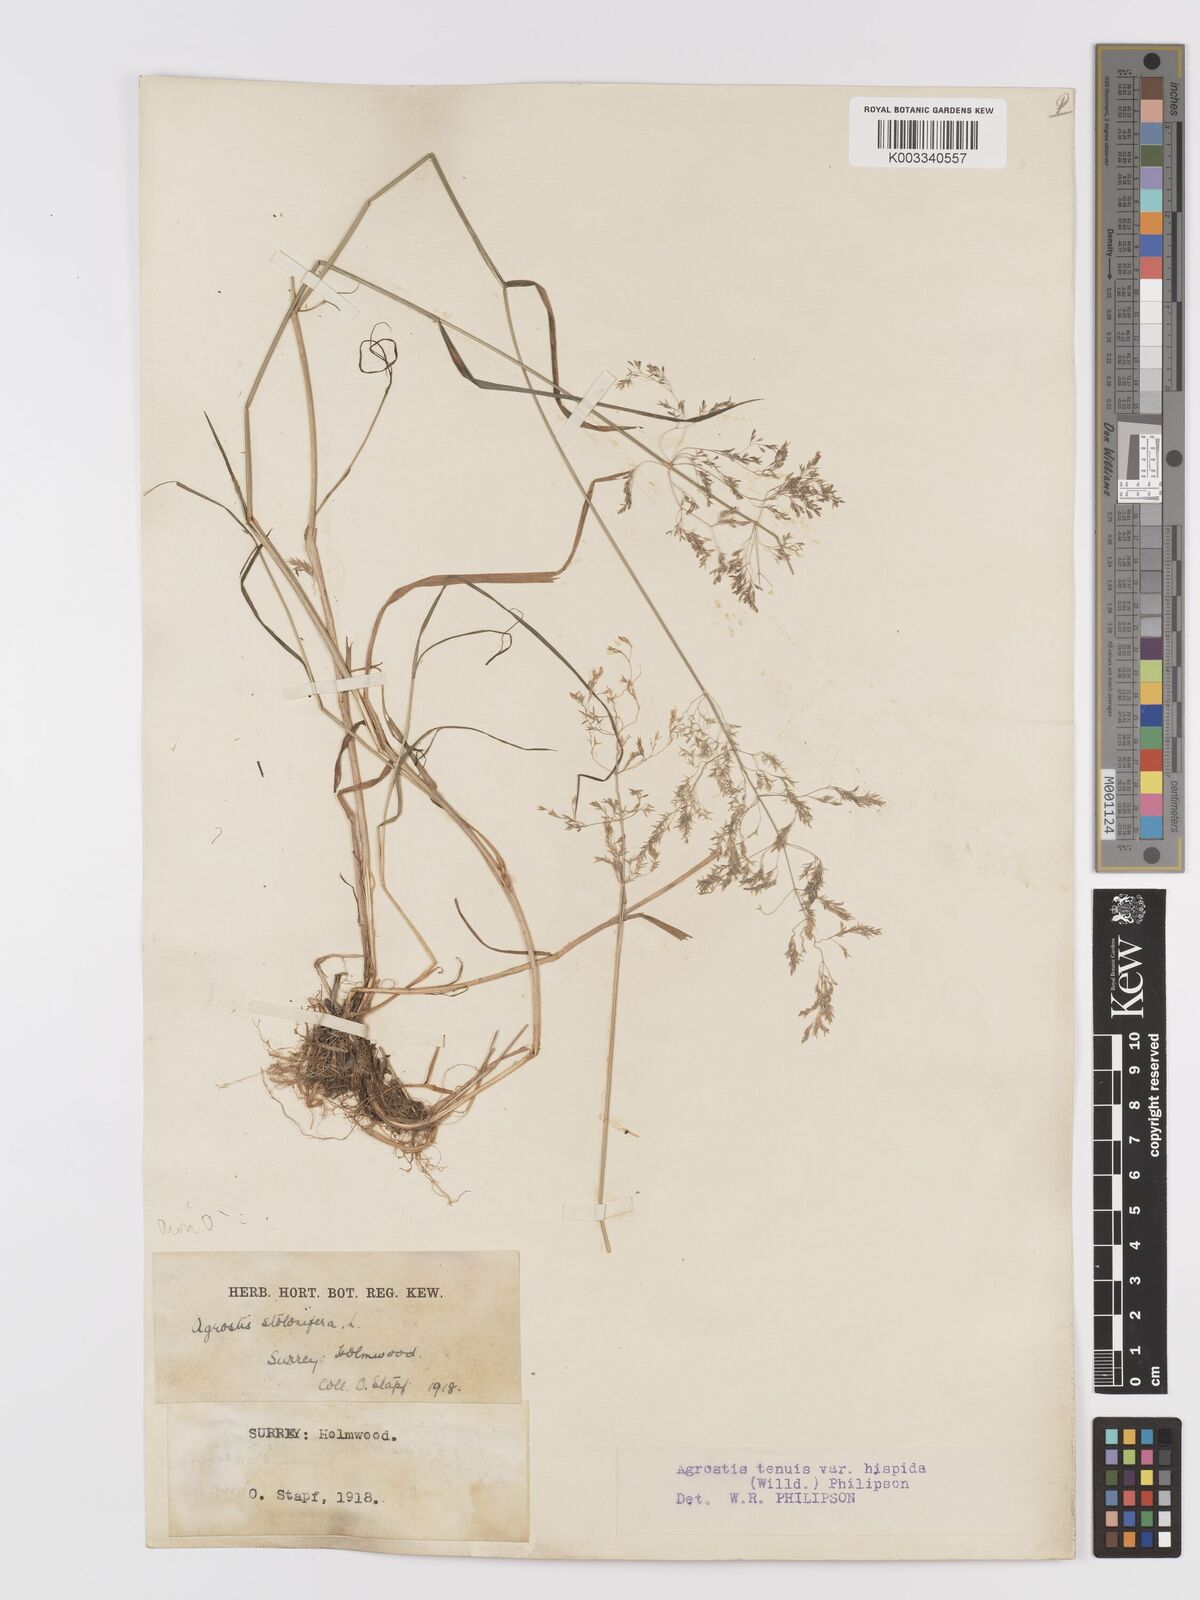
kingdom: Plantae
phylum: Tracheophyta
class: Liliopsida
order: Poales
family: Poaceae
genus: Agrostis
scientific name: Agrostis capillaris
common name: Colonial bentgrass
